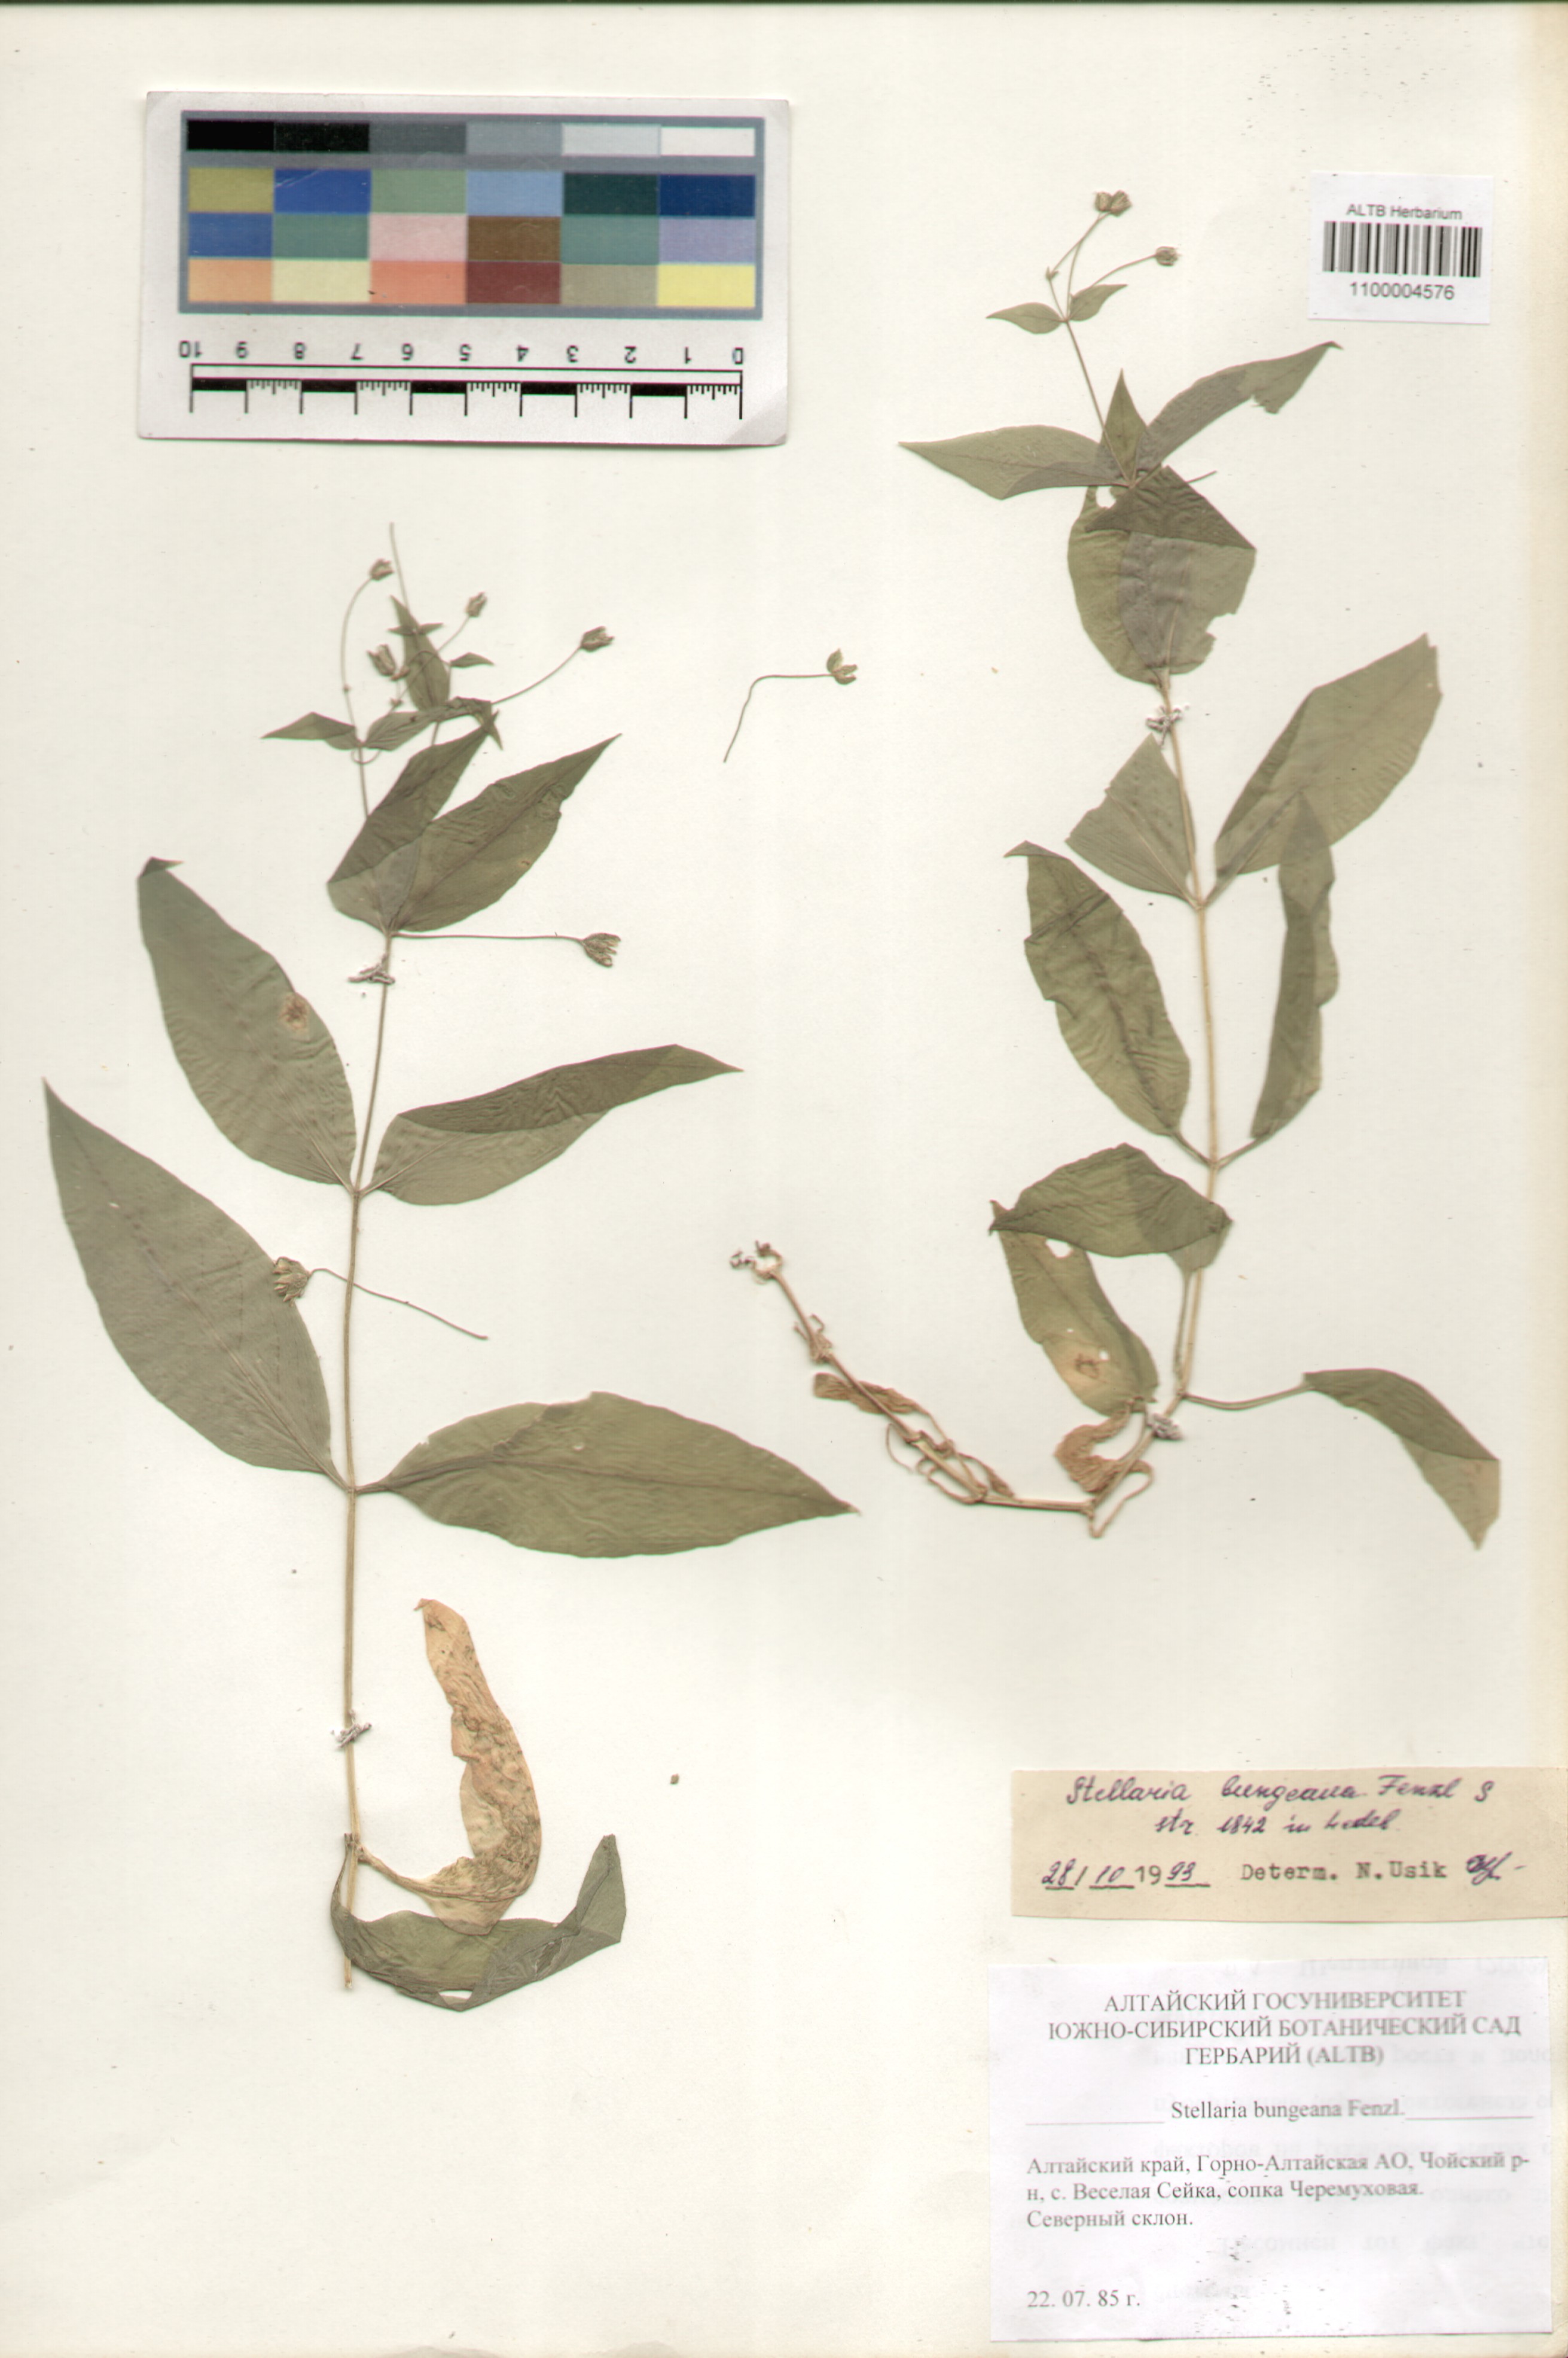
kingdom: Plantae
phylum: Tracheophyta
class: Magnoliopsida
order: Caryophyllales
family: Caryophyllaceae
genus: Stellaria
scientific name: Stellaria bungeana
